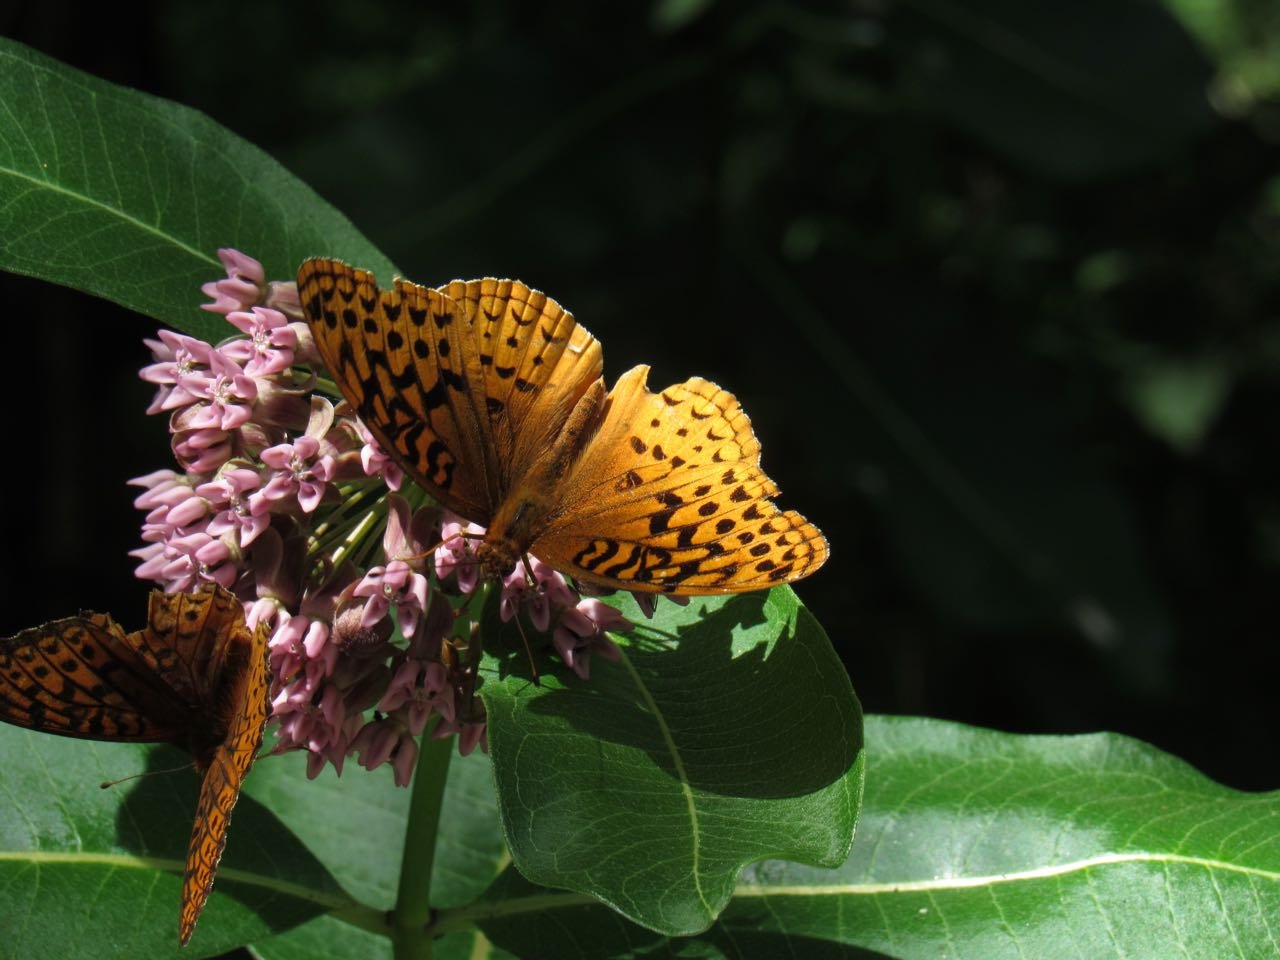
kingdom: Animalia
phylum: Arthropoda
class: Insecta
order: Lepidoptera
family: Nymphalidae
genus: Speyeria
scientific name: Speyeria cybele
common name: Great Spangled Fritillary
